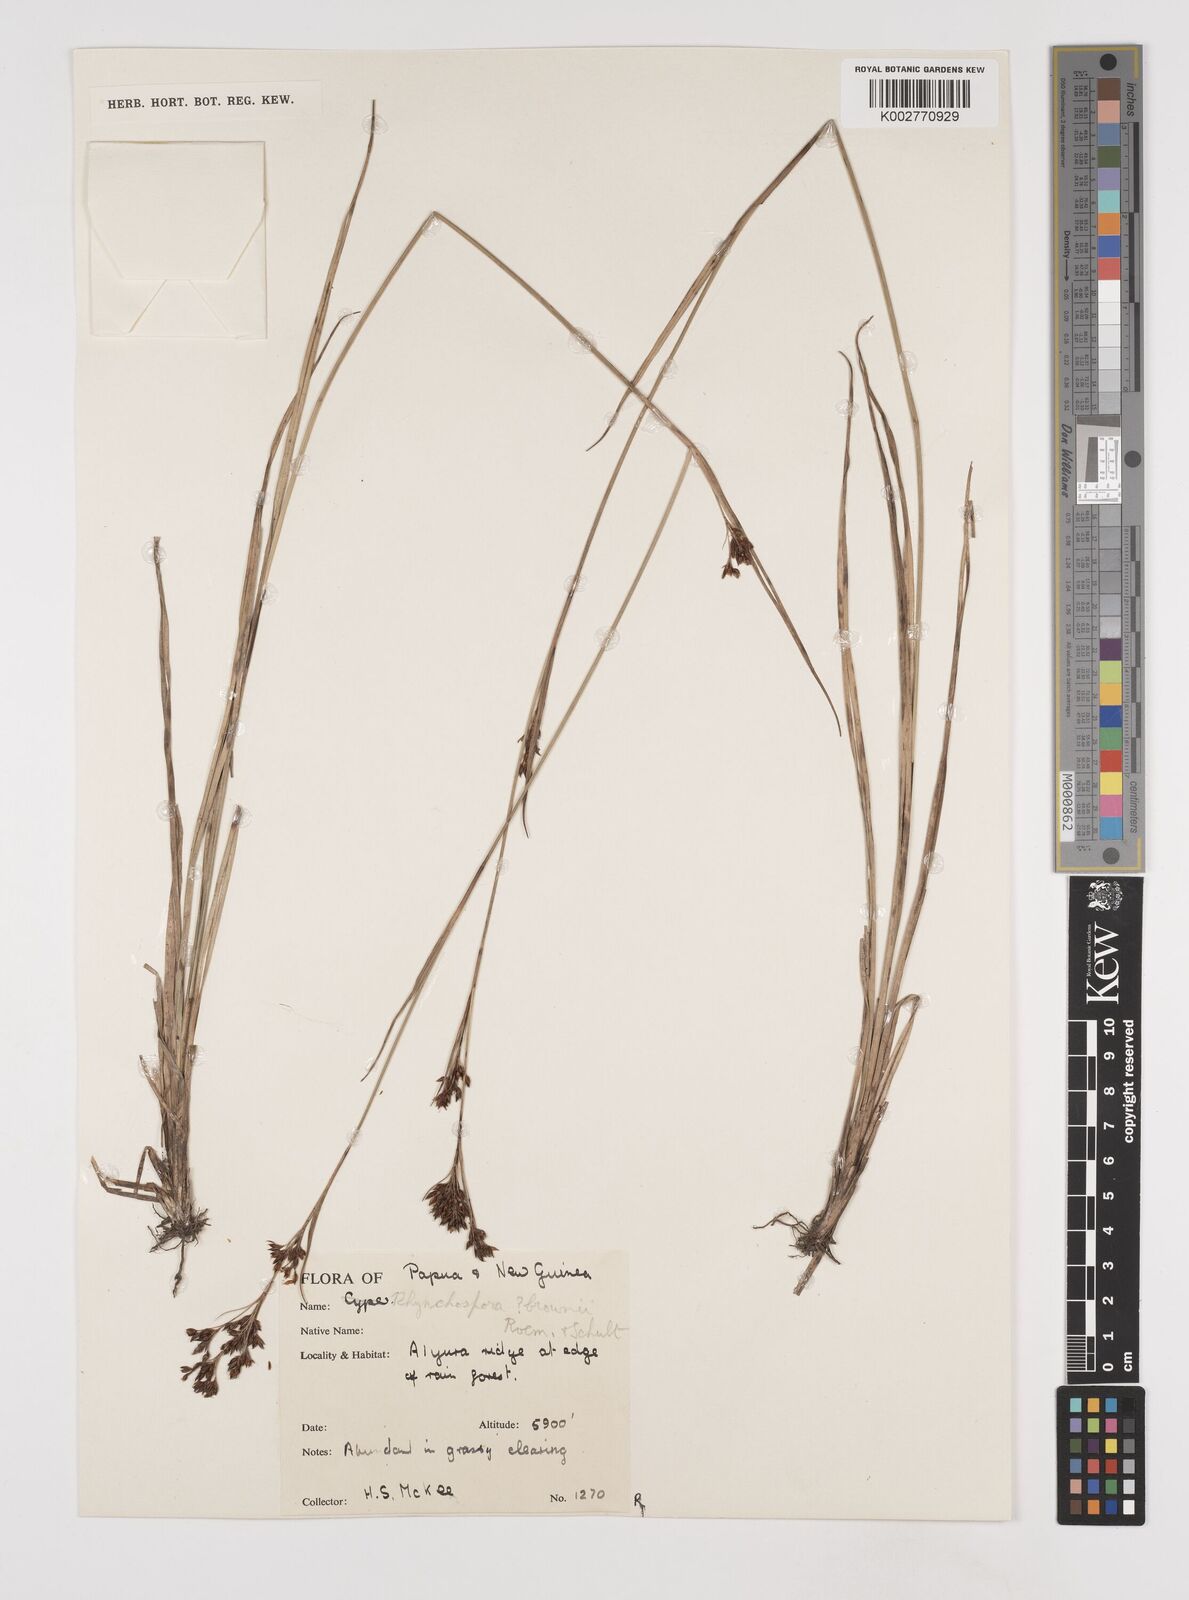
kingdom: Plantae
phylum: Tracheophyta
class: Liliopsida
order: Poales
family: Cyperaceae
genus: Rhynchospora
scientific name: Rhynchospora rugosa
